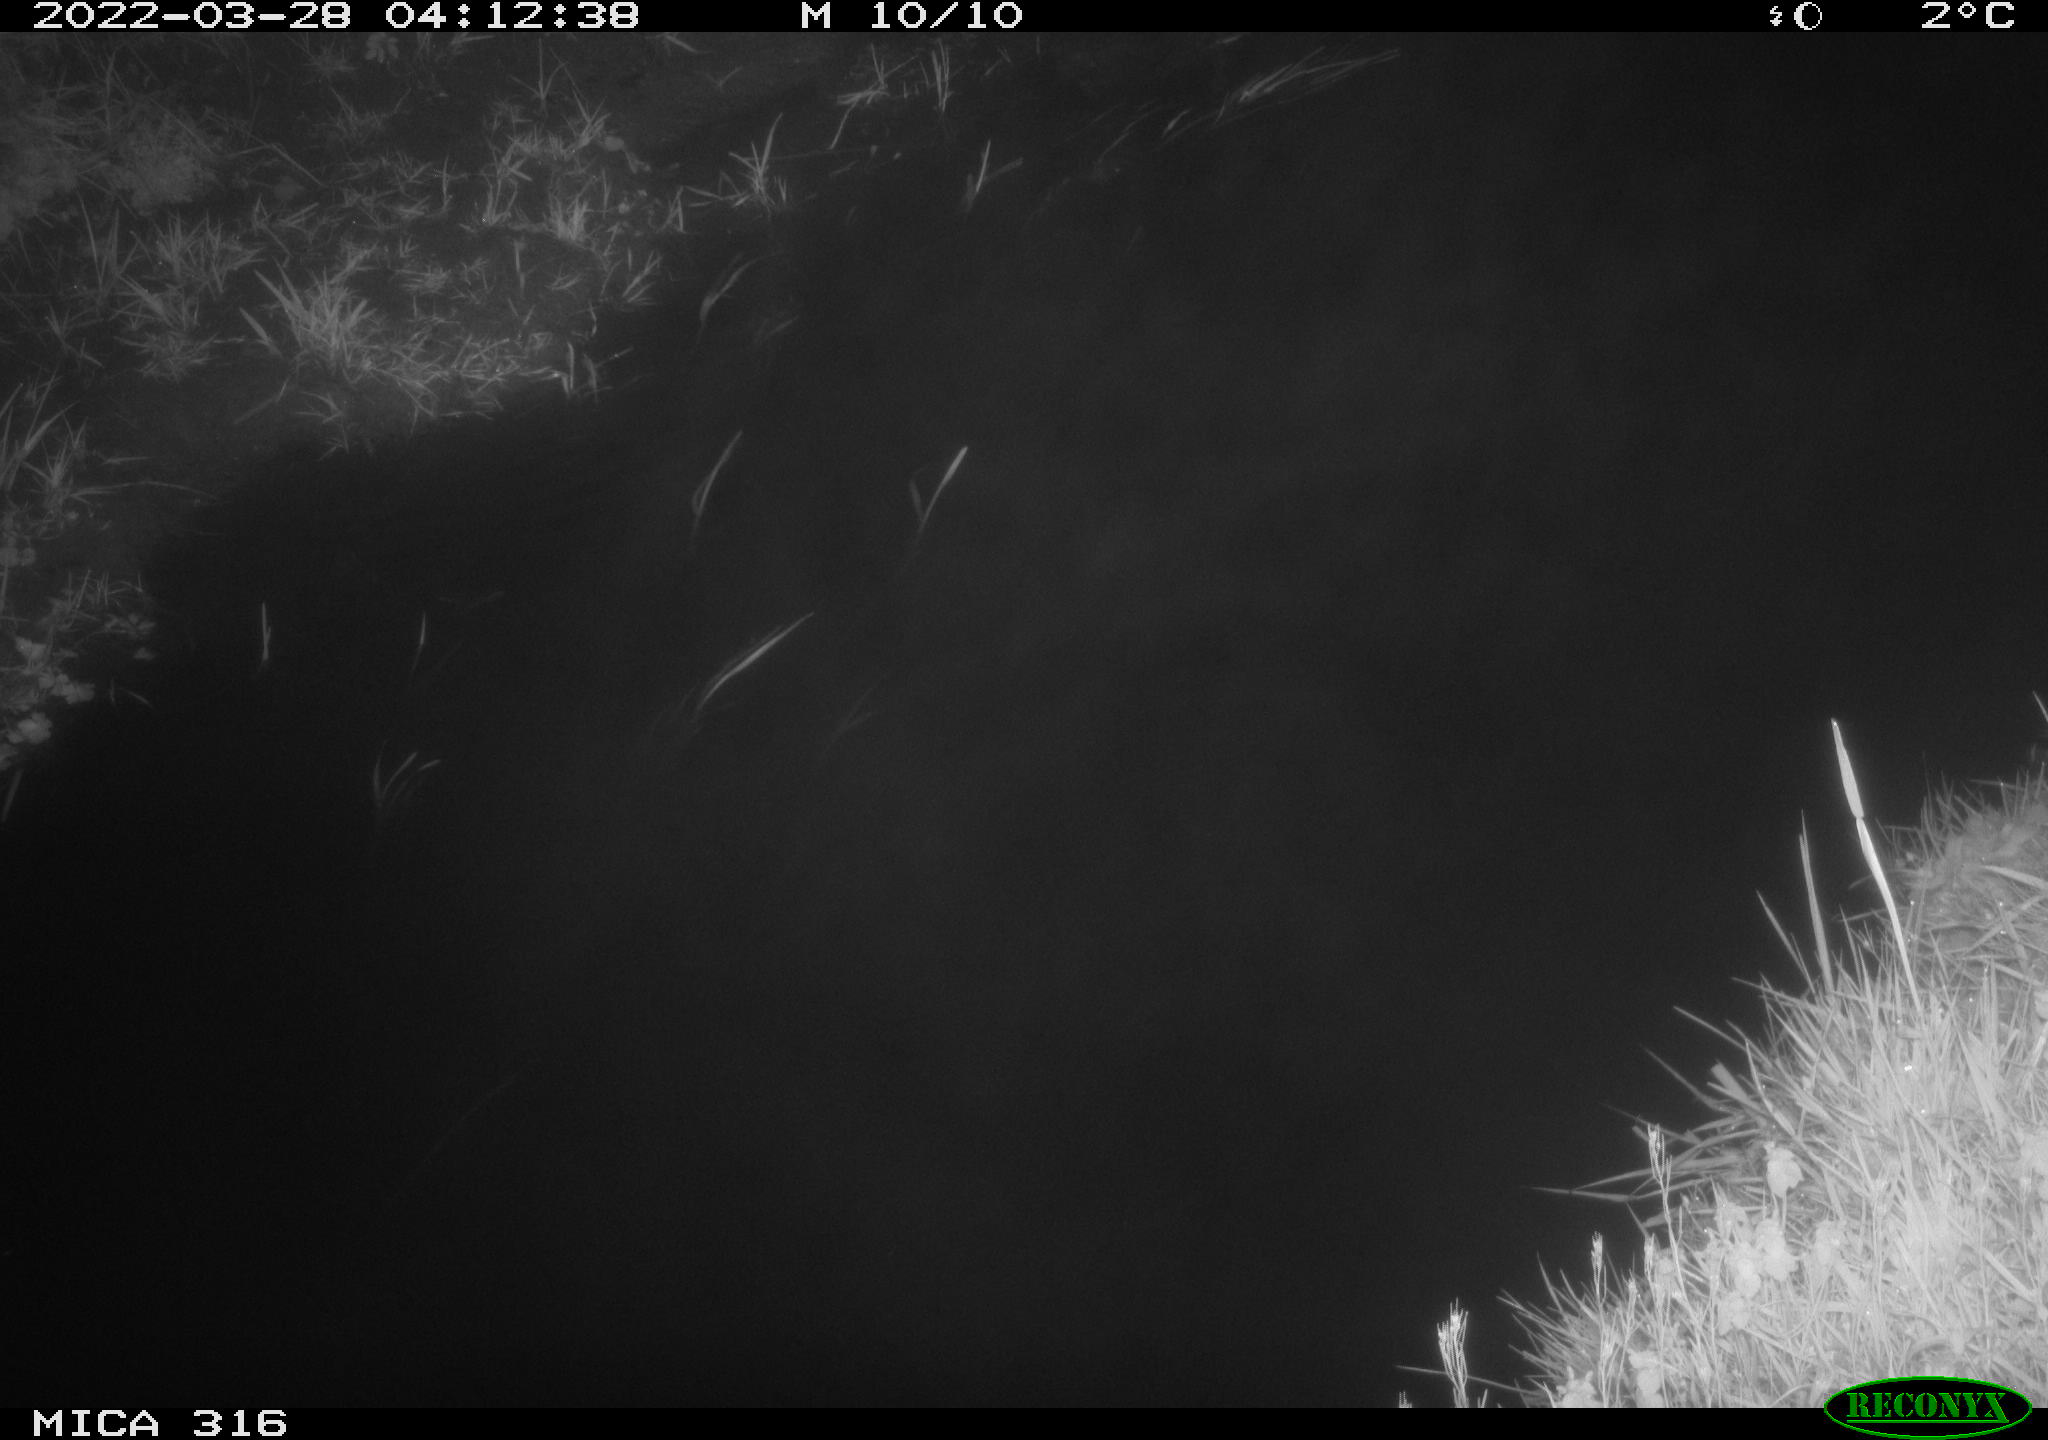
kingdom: Animalia
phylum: Chordata
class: Aves
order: Anseriformes
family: Anatidae
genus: Anas
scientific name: Anas platyrhynchos
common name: Mallard
